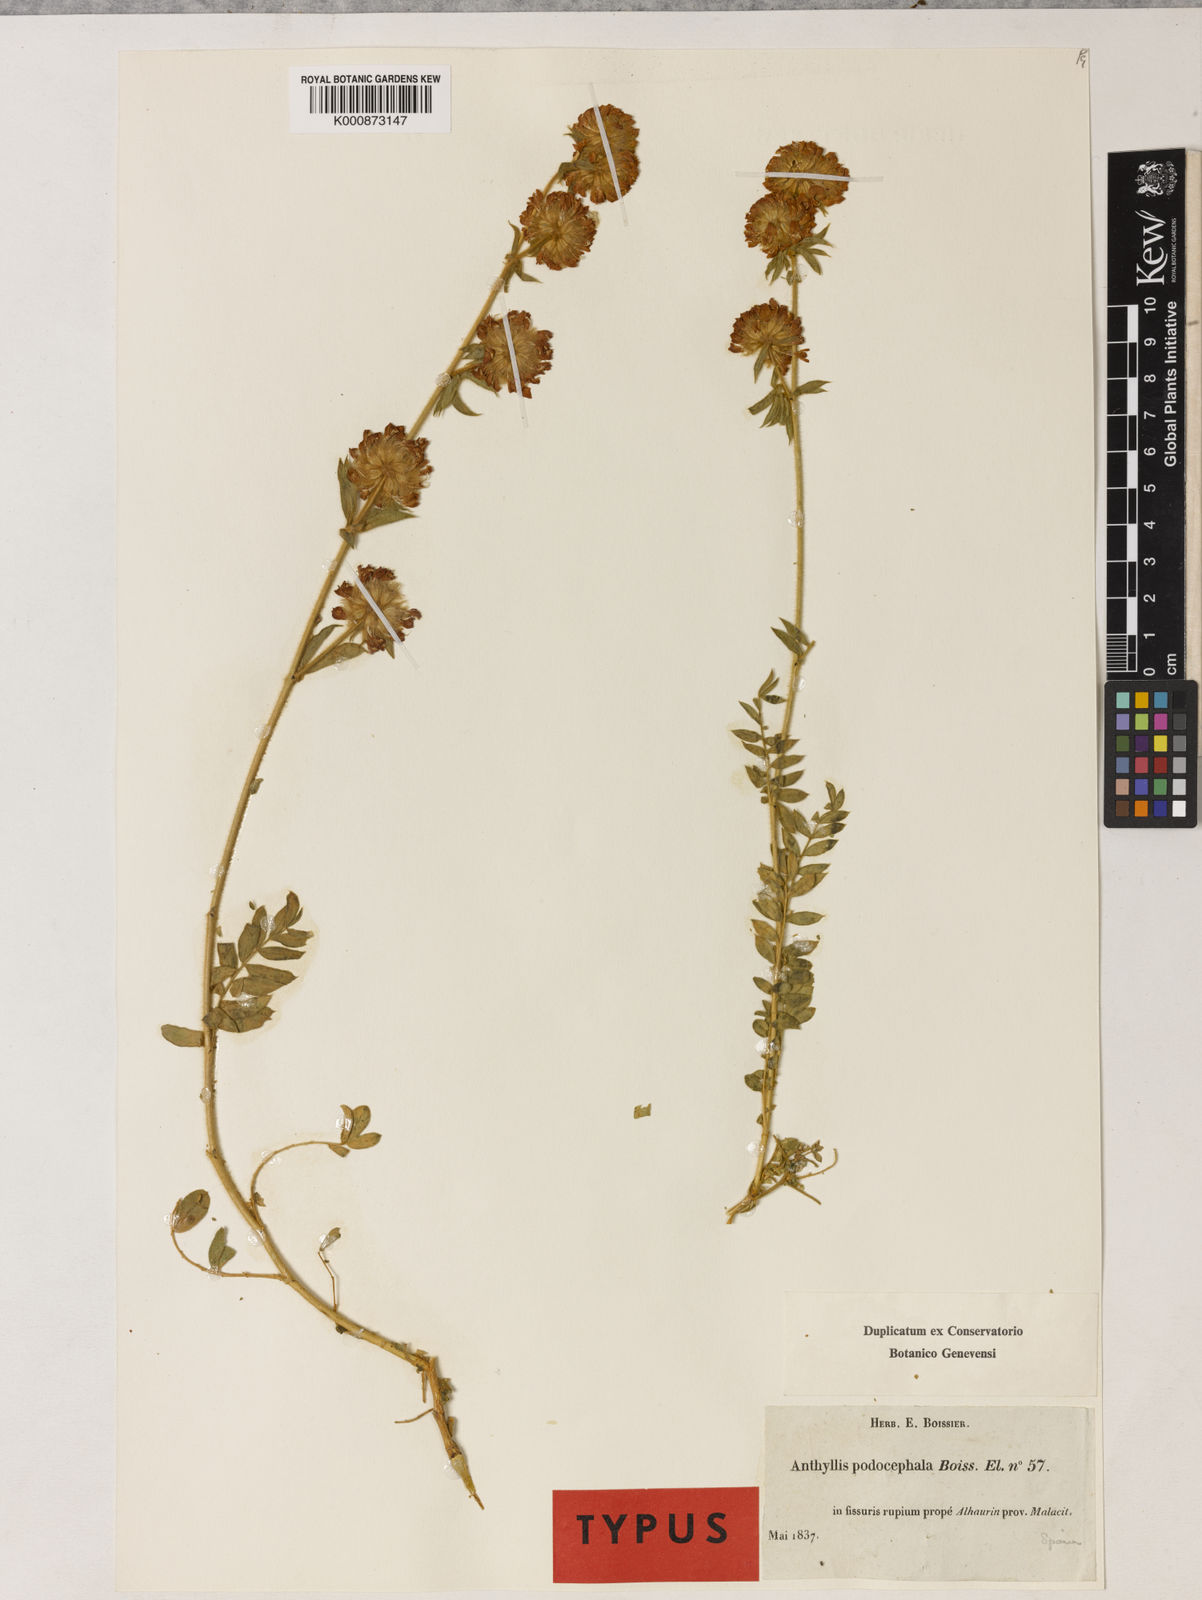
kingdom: Plantae
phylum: Tracheophyta
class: Magnoliopsida
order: Fabales
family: Fabaceae
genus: Anthyllis
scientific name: Anthyllis polycephala
